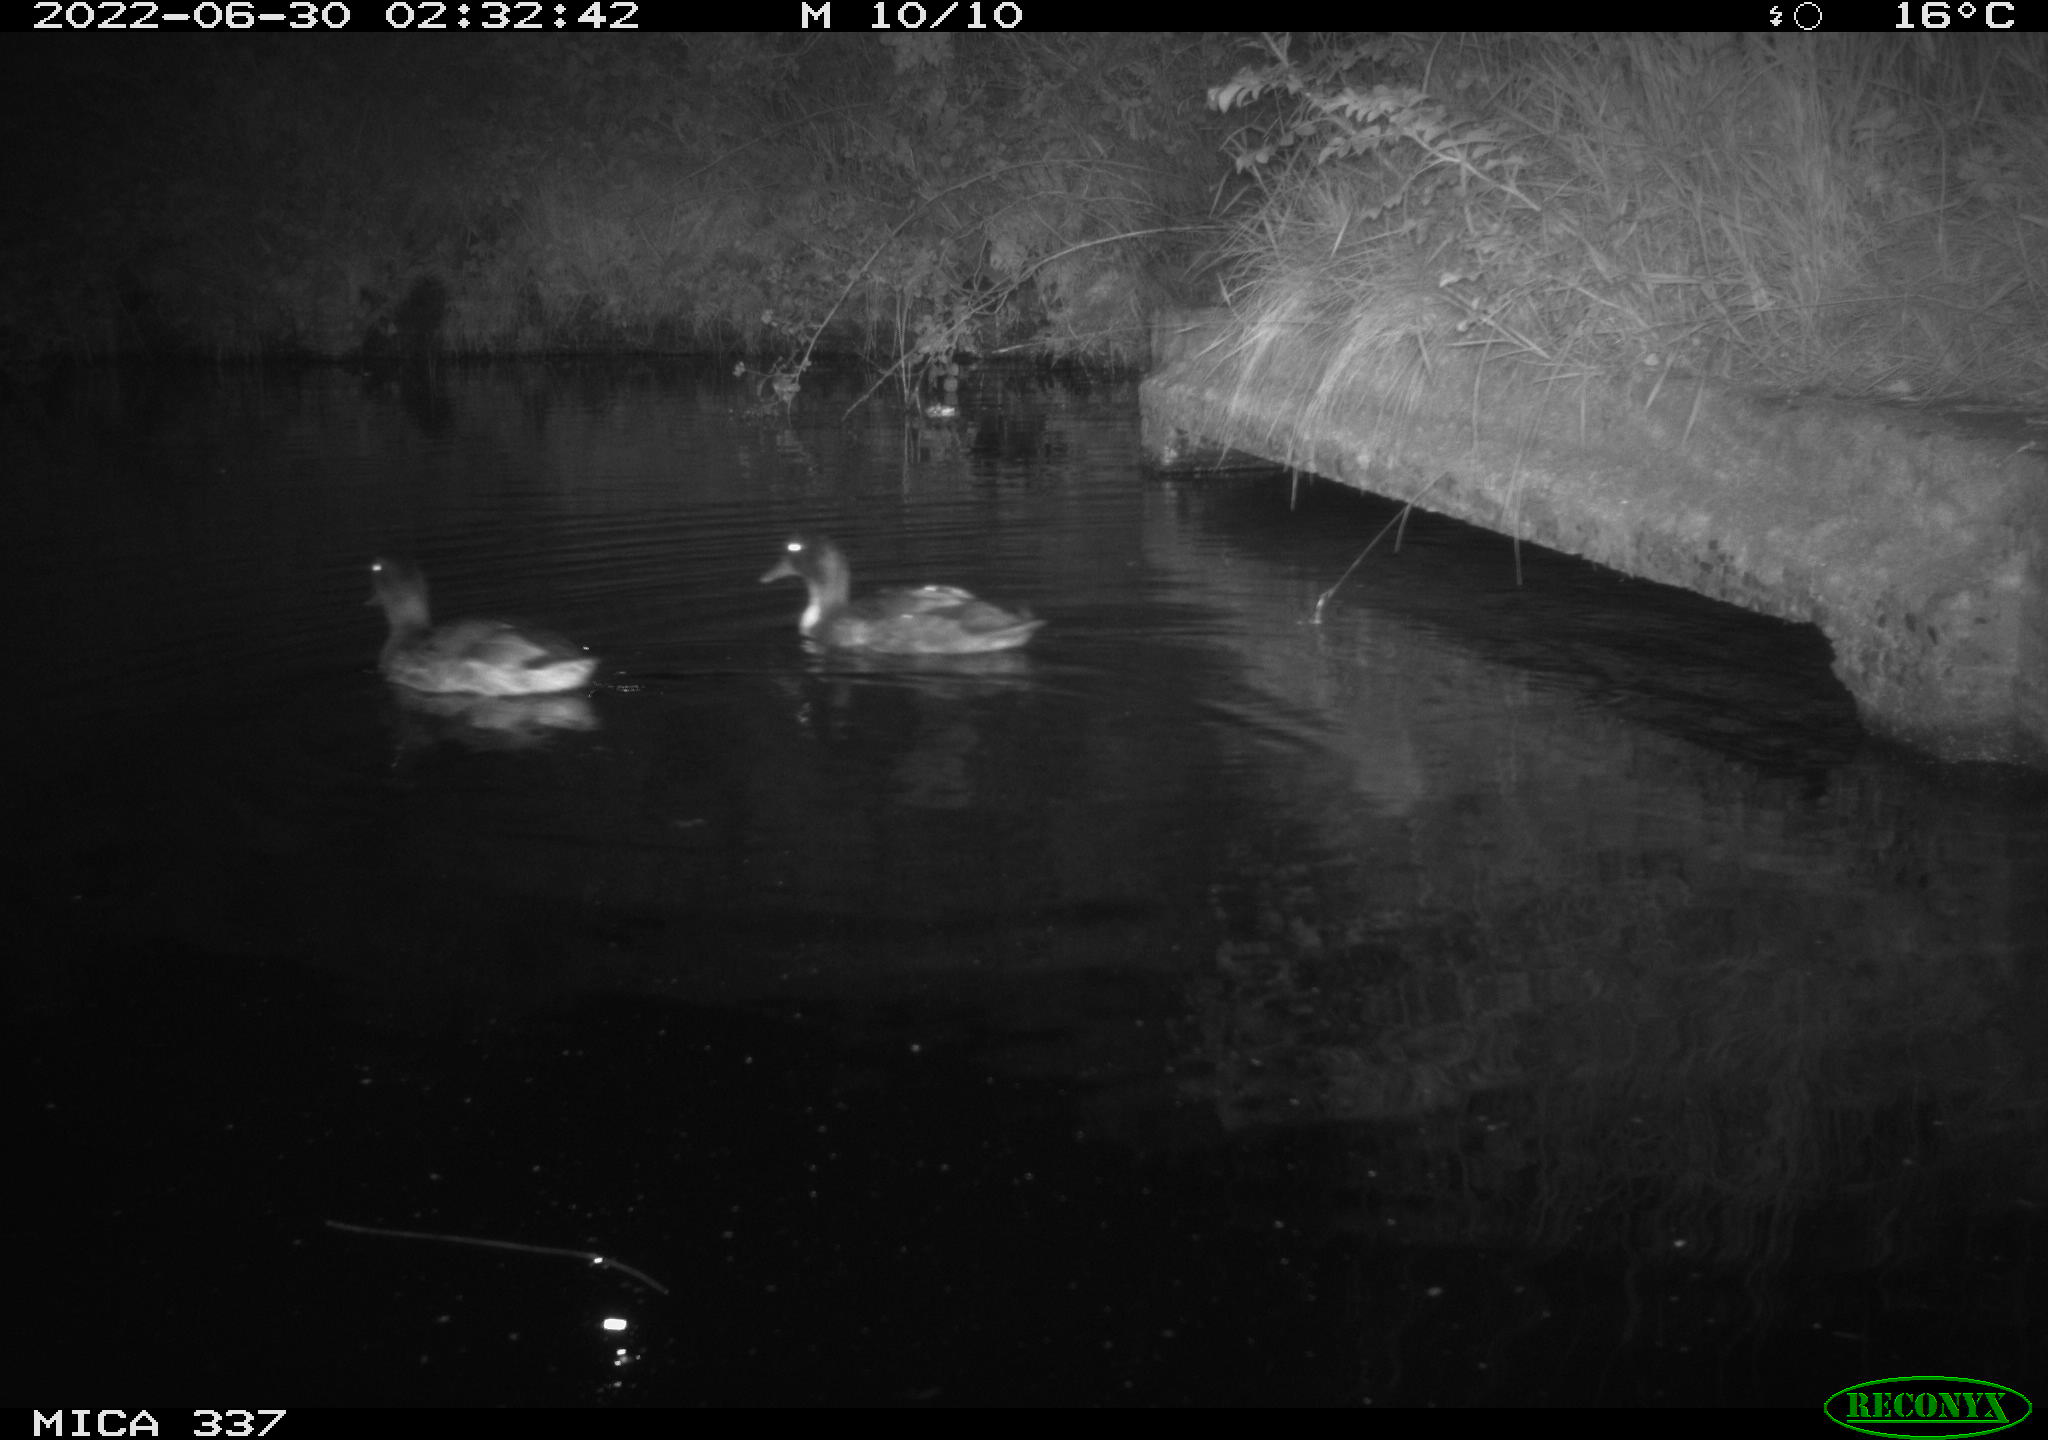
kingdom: Animalia
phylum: Chordata
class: Aves
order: Anseriformes
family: Anatidae
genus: Anas
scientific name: Anas platyrhynchos
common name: Mallard
